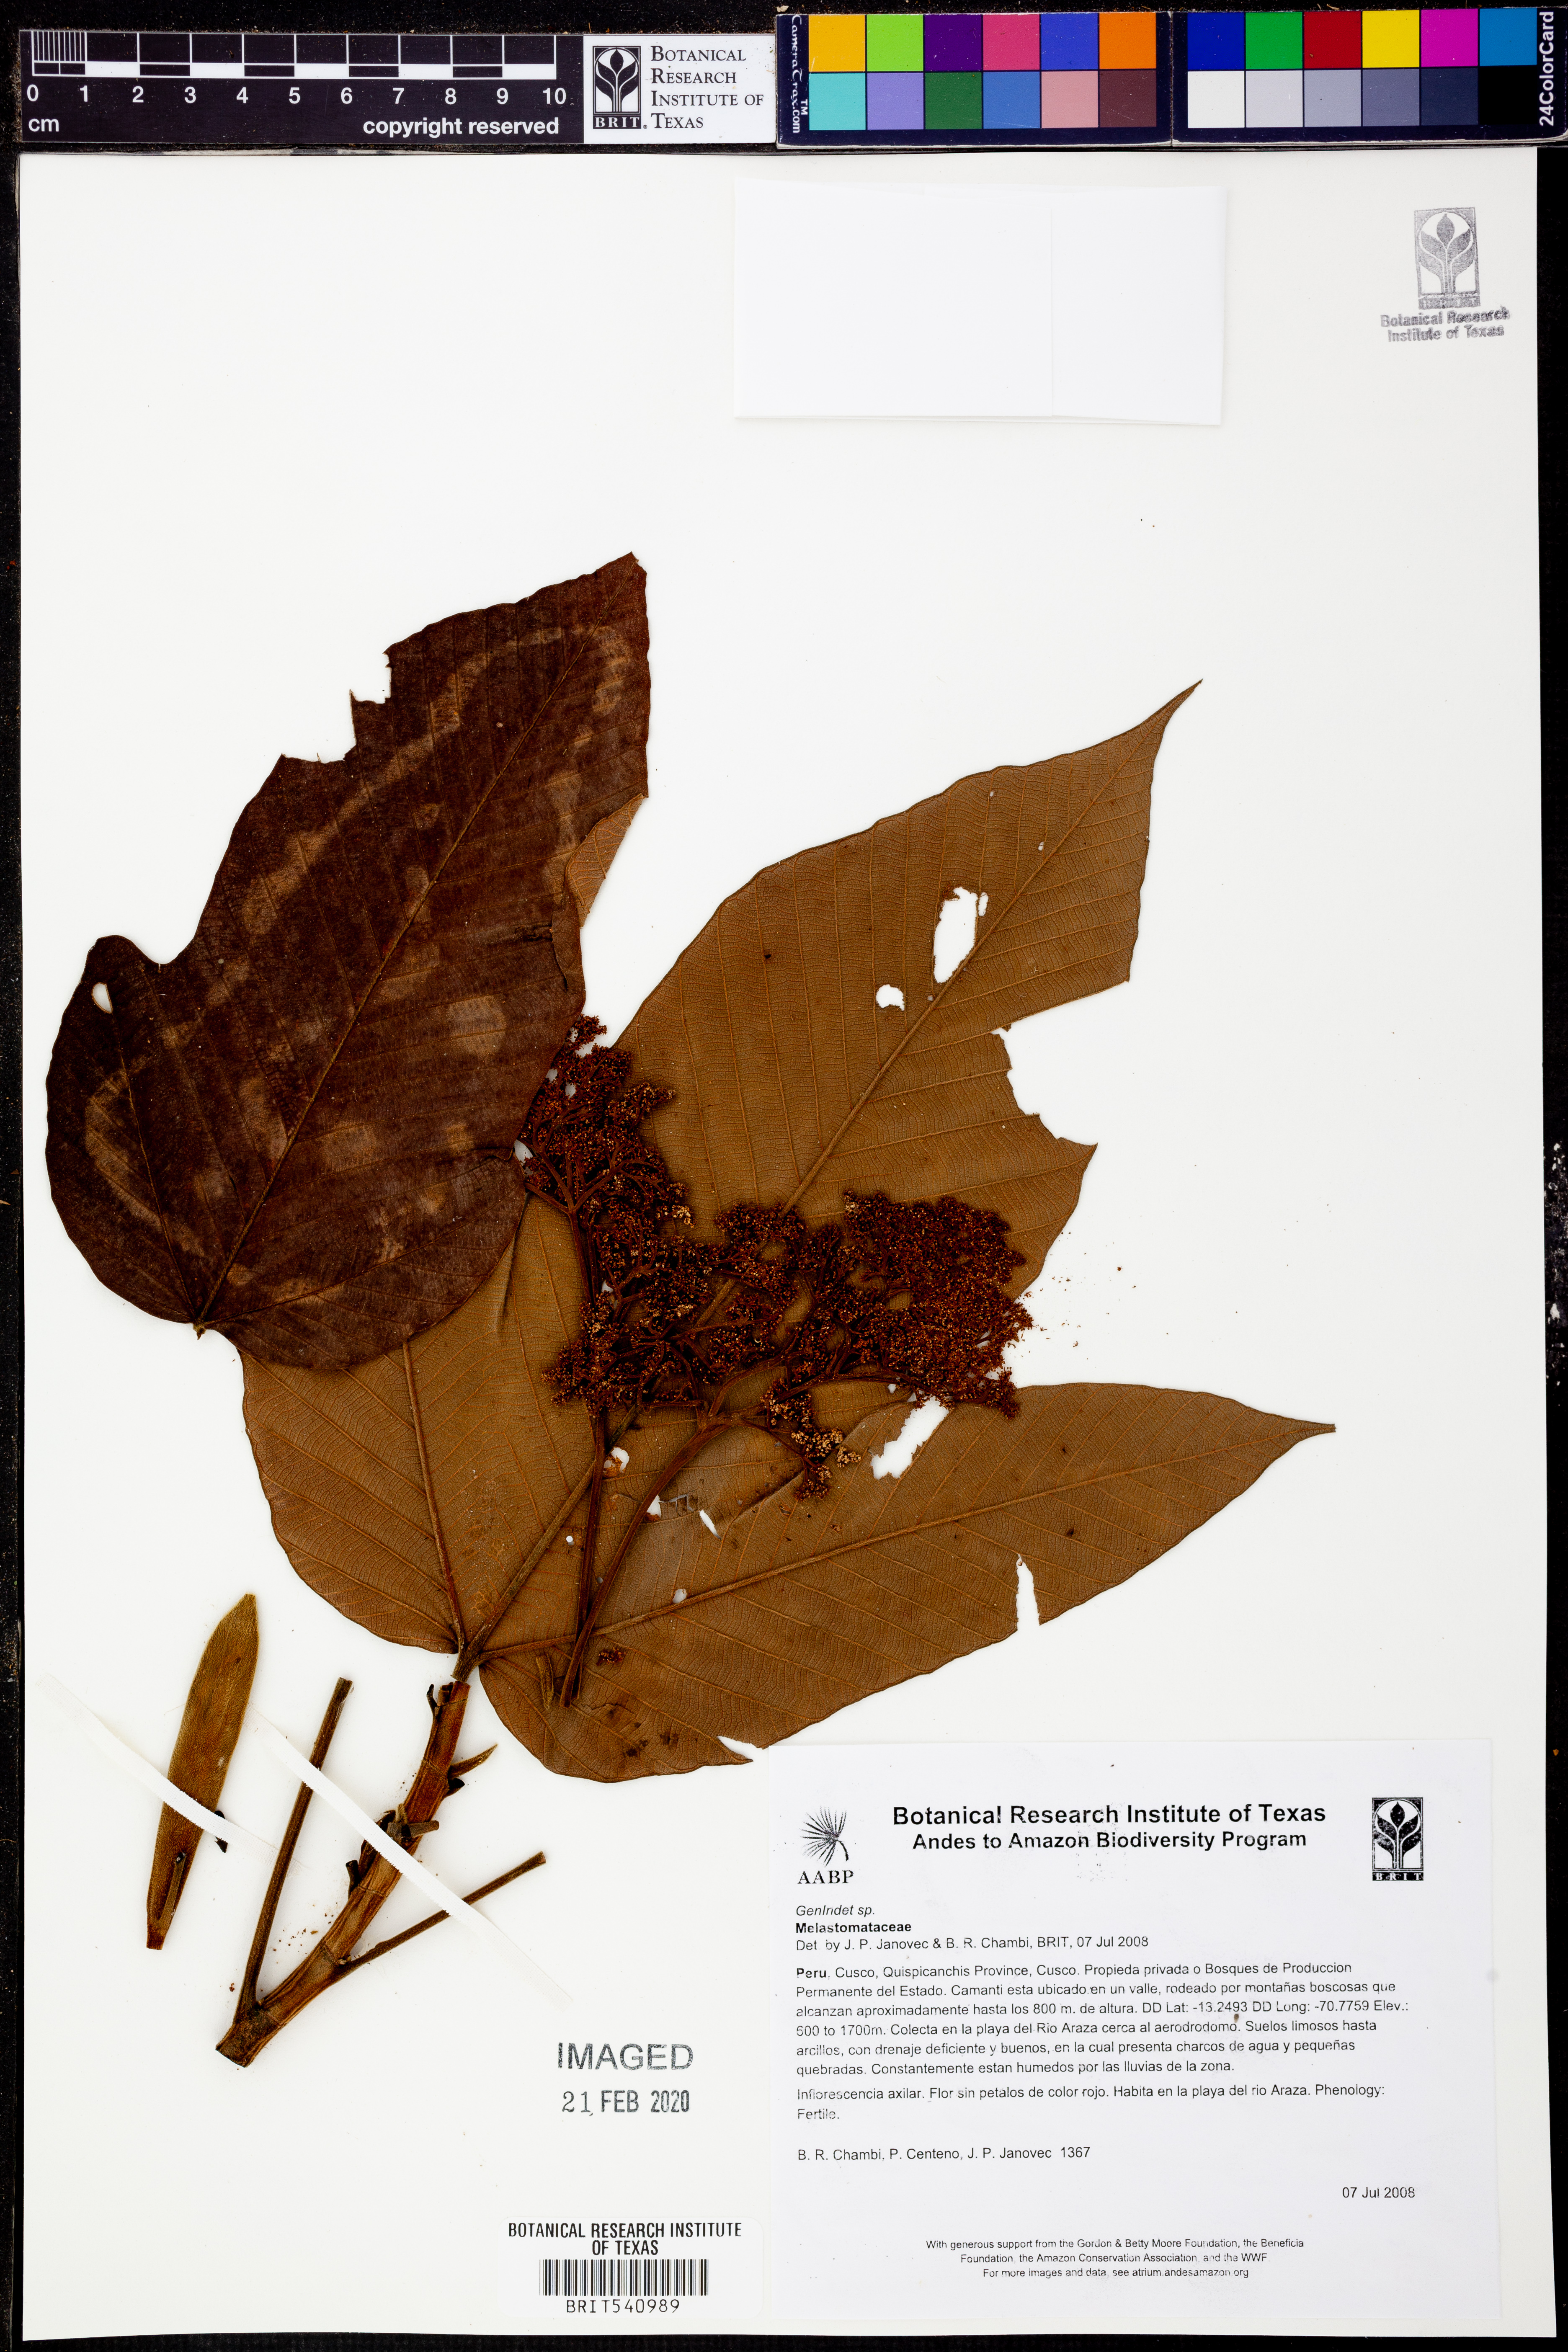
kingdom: Plantae
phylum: Tracheophyta
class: Magnoliopsida
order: Myrtales
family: Melastomataceae
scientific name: Melastomataceae
